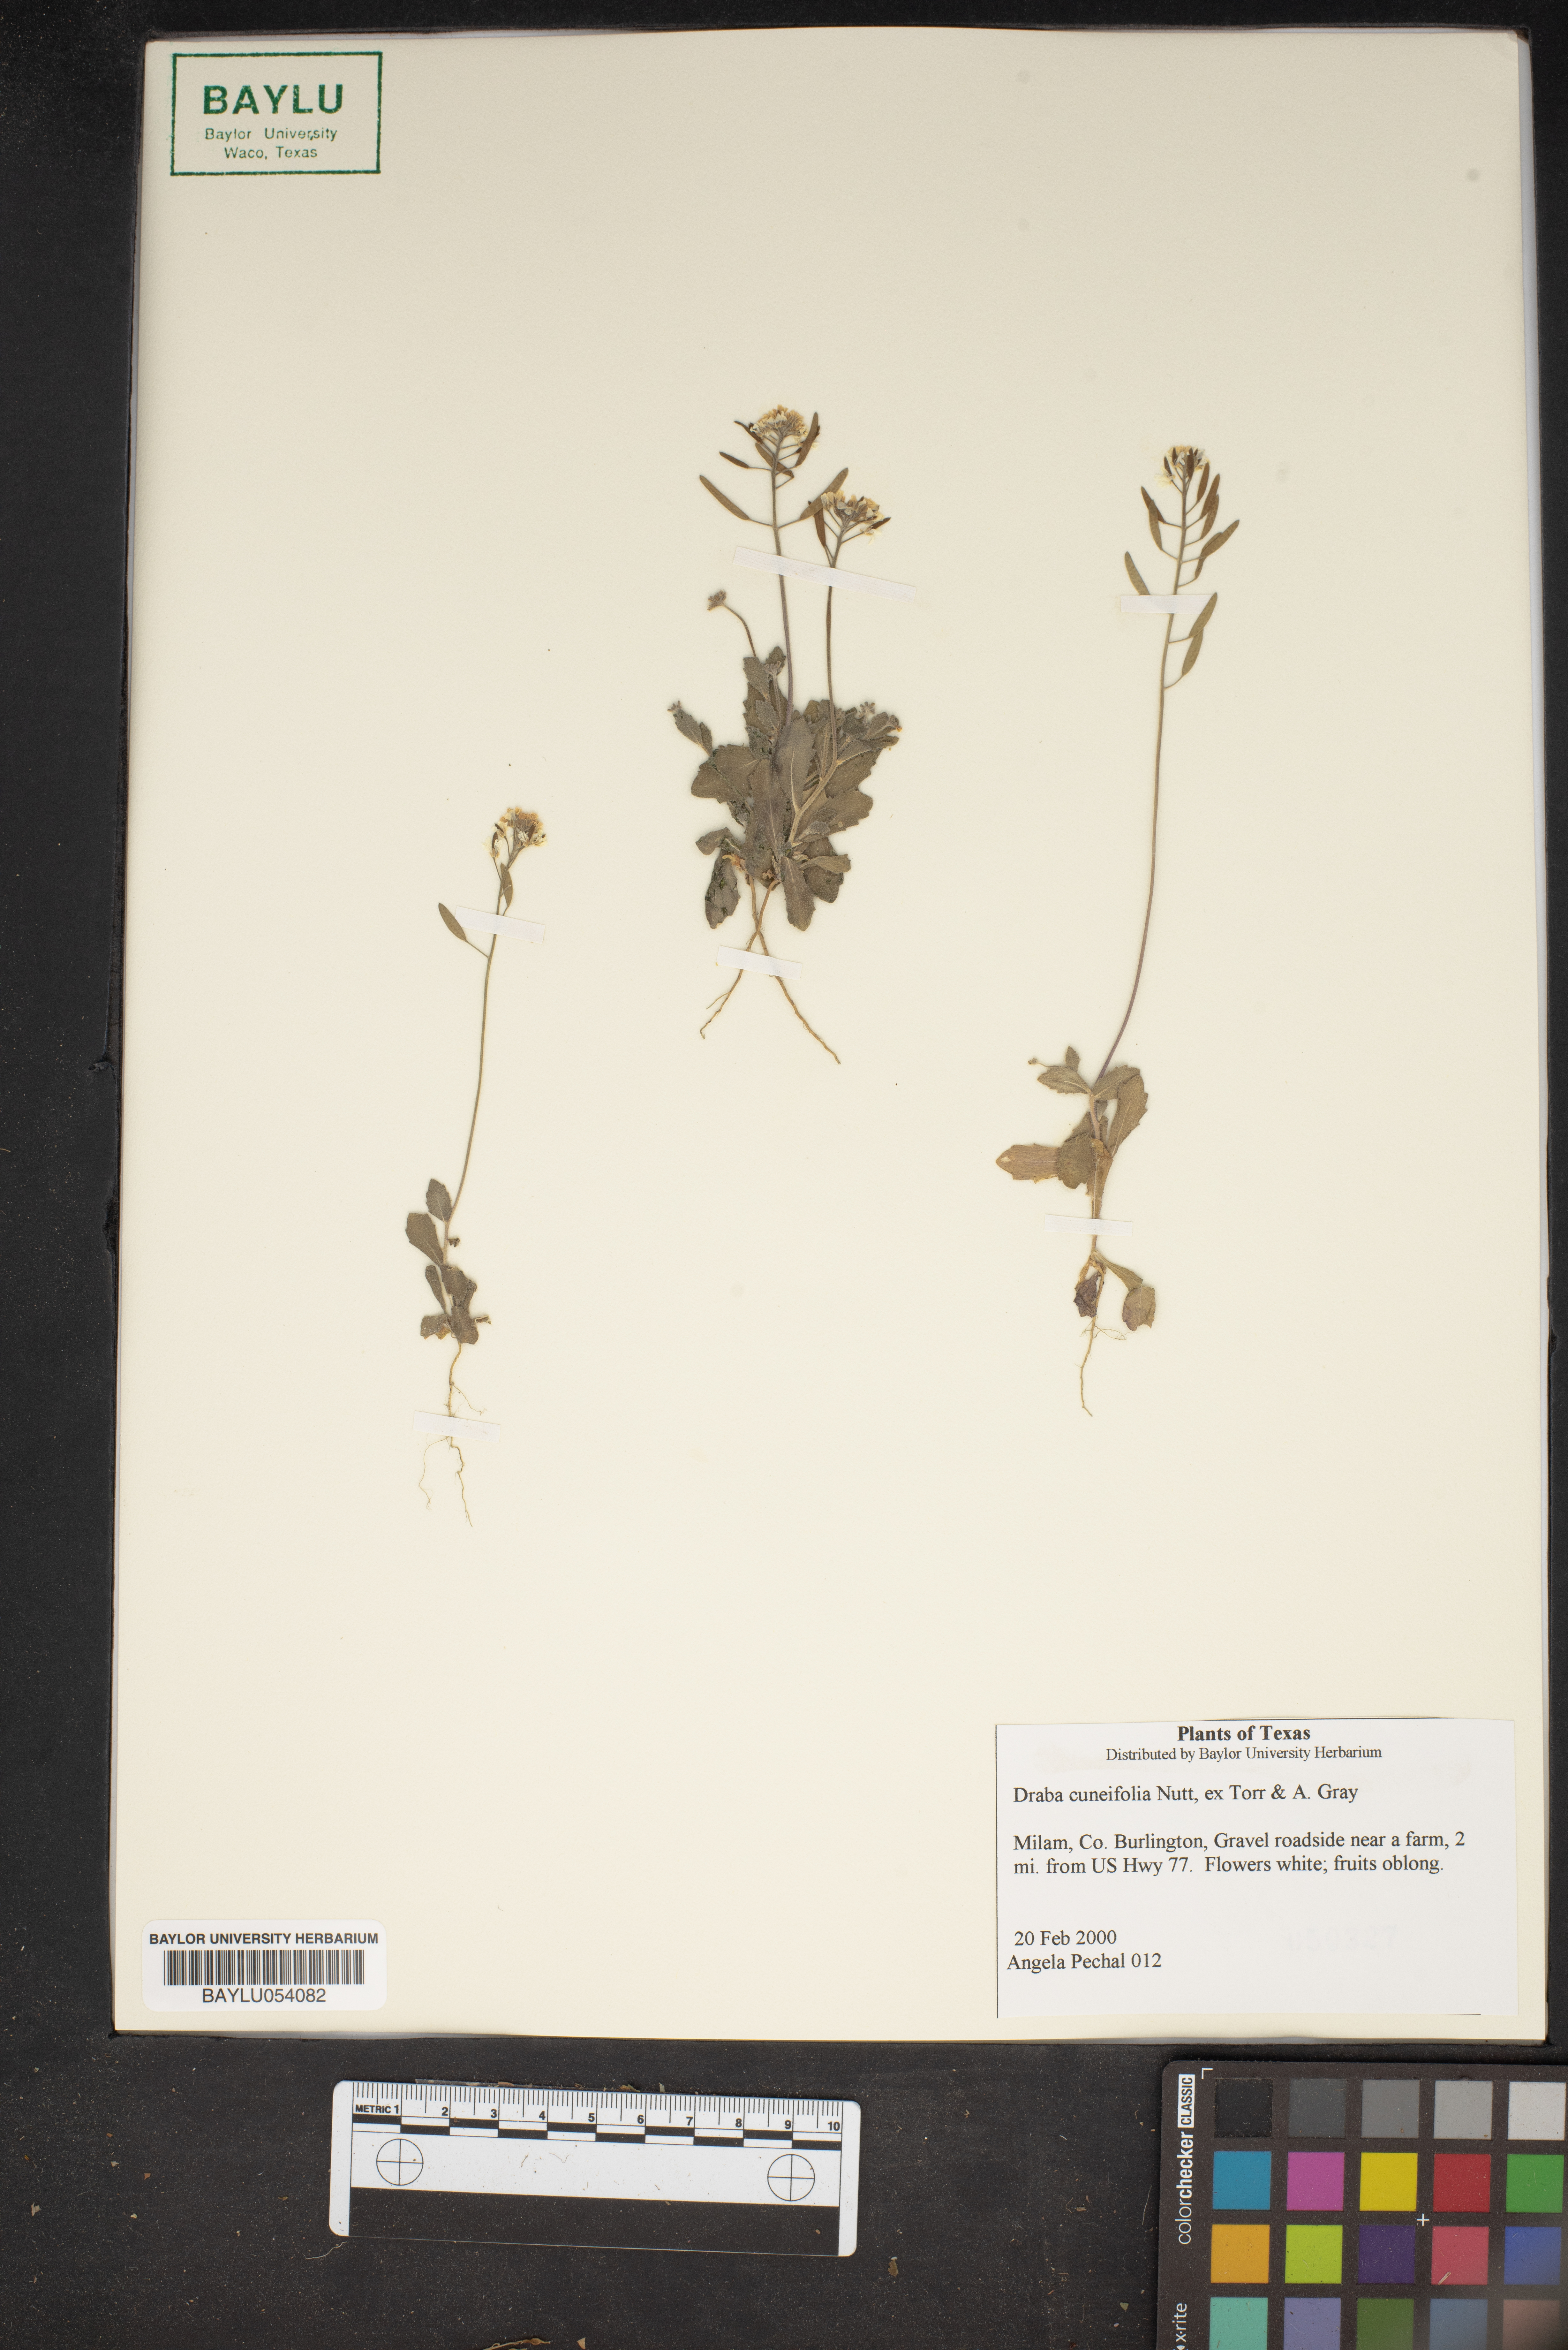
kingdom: Plantae
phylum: Tracheophyta
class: Magnoliopsida
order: Brassicales
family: Brassicaceae
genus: Tomostima
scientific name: Tomostima cuneifolia
